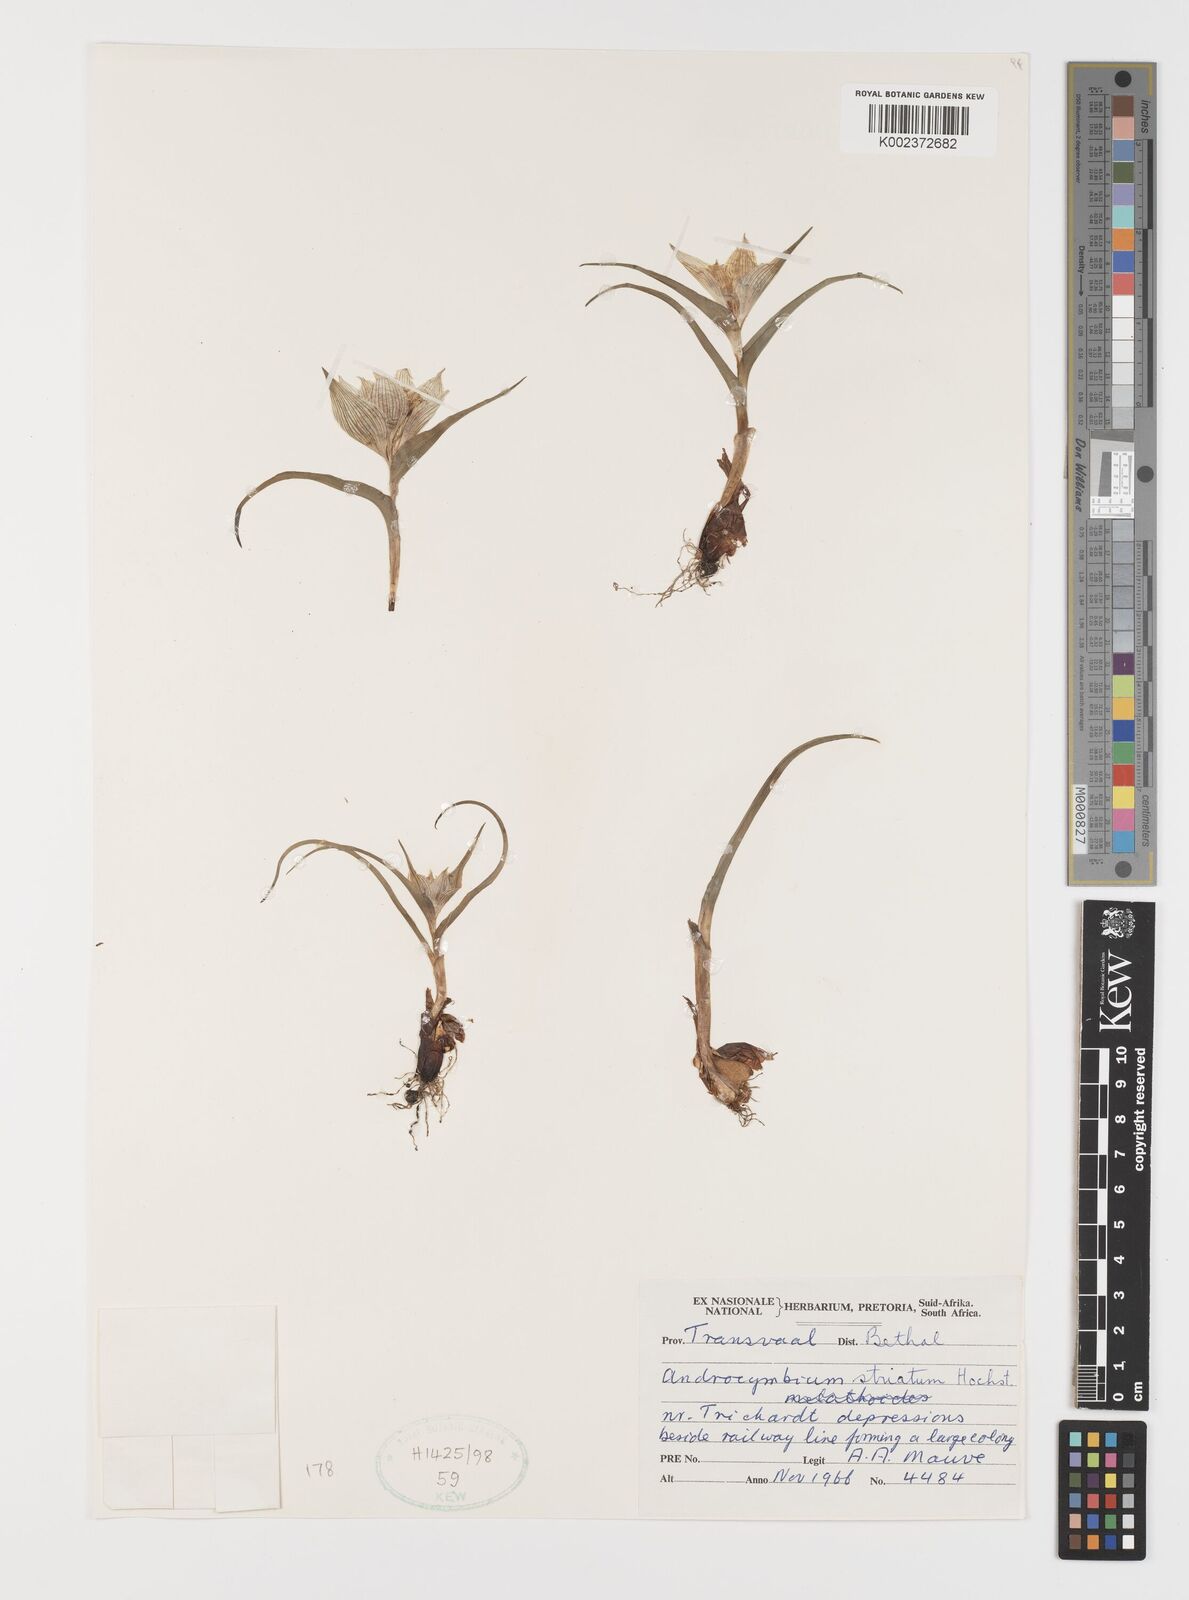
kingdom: Plantae
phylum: Tracheophyta
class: Liliopsida
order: Liliales
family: Colchicaceae
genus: Colchicum
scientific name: Colchicum striatum
